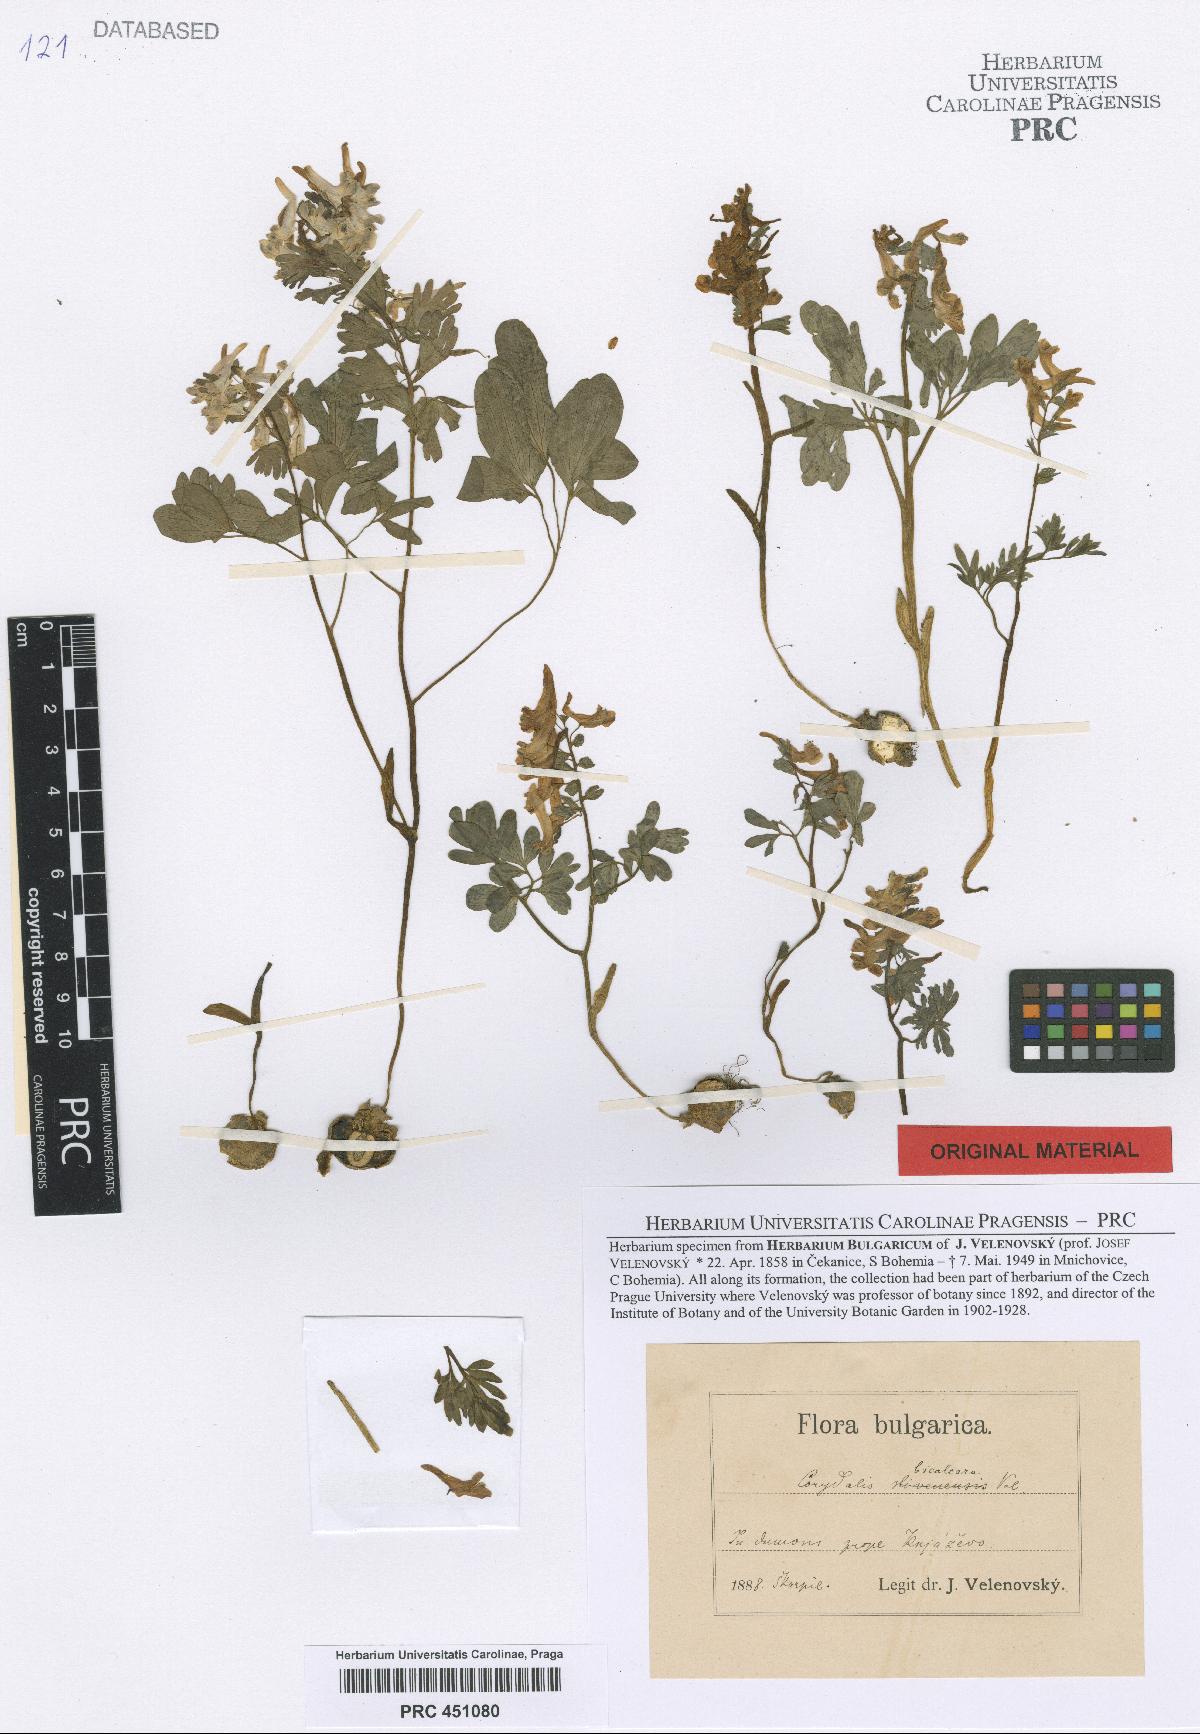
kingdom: Plantae
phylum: Tracheophyta
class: Magnoliopsida
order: Ranunculales
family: Papaveraceae
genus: Corydalis
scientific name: Corydalis solida
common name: Bird-in-a-bush
